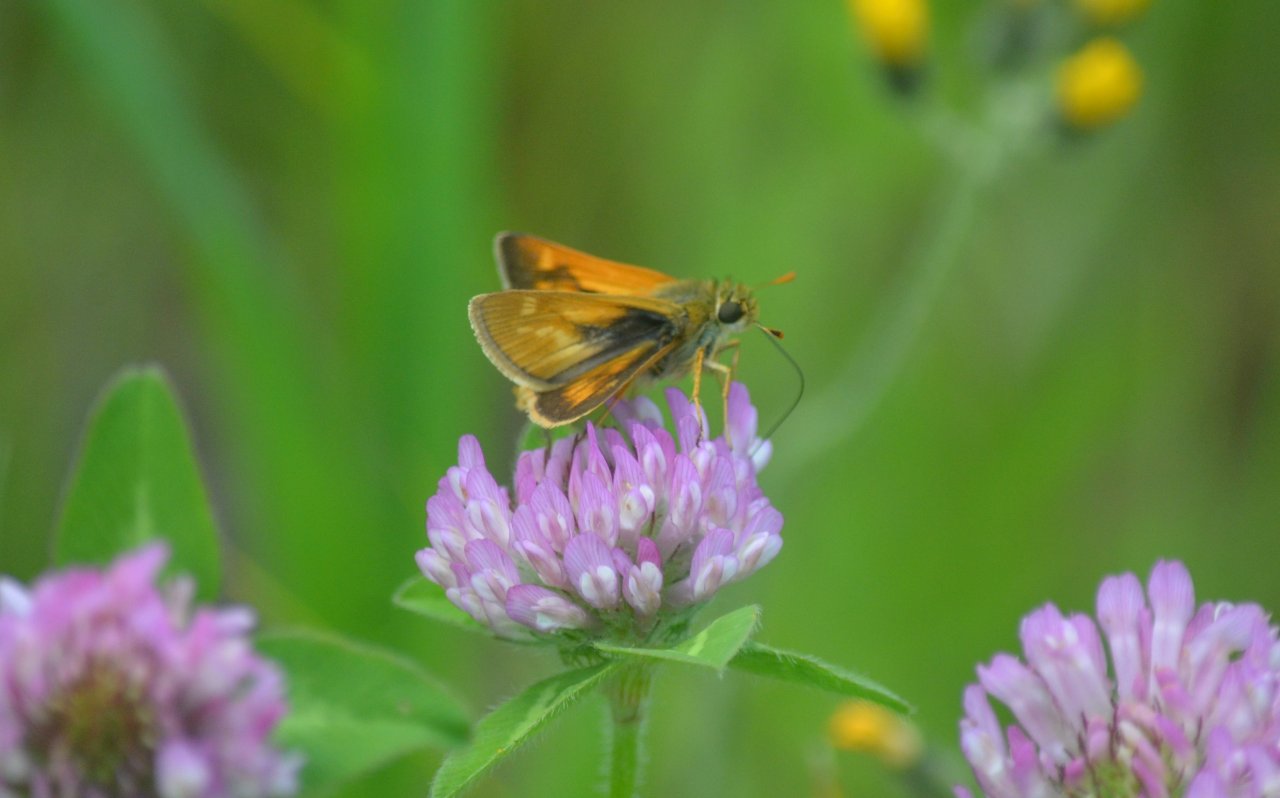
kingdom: Animalia
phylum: Arthropoda
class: Insecta
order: Lepidoptera
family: Hesperiidae
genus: Polites
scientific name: Polites
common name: Long Dash Skipper
